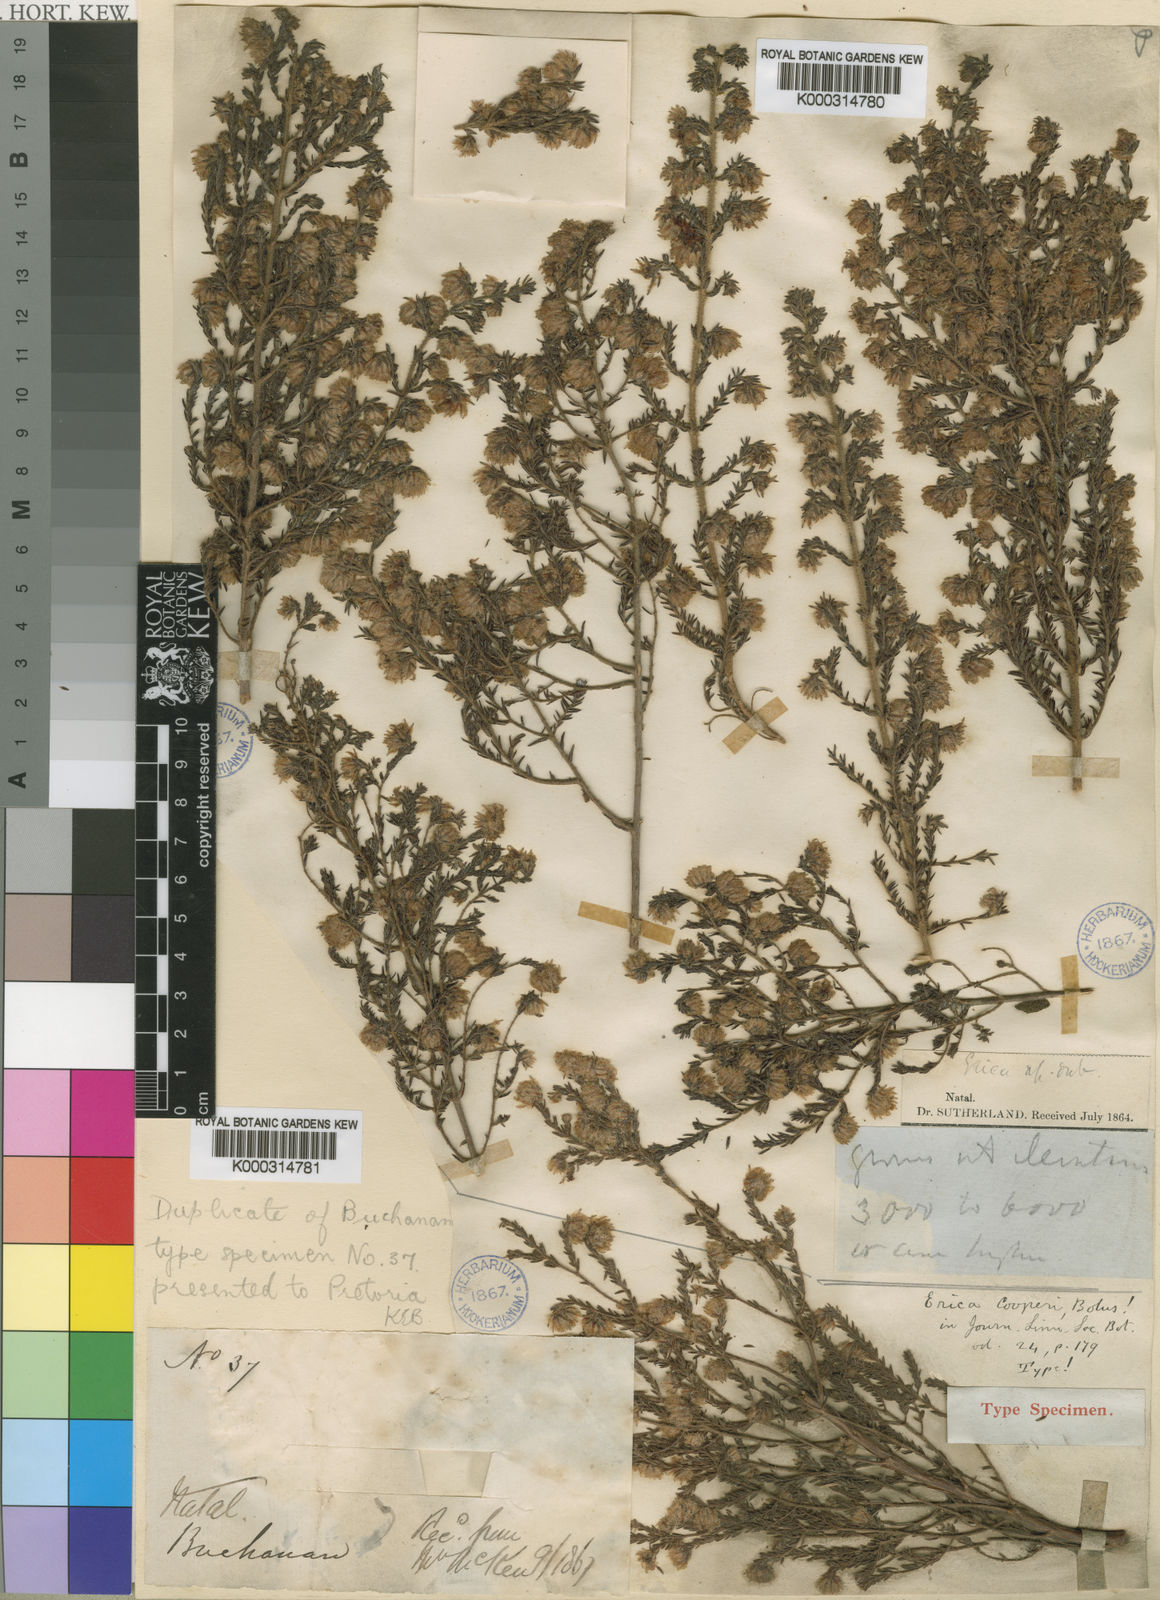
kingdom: Plantae
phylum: Tracheophyta
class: Magnoliopsida
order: Ericales
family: Ericaceae
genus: Erica
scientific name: Erica cooperi
